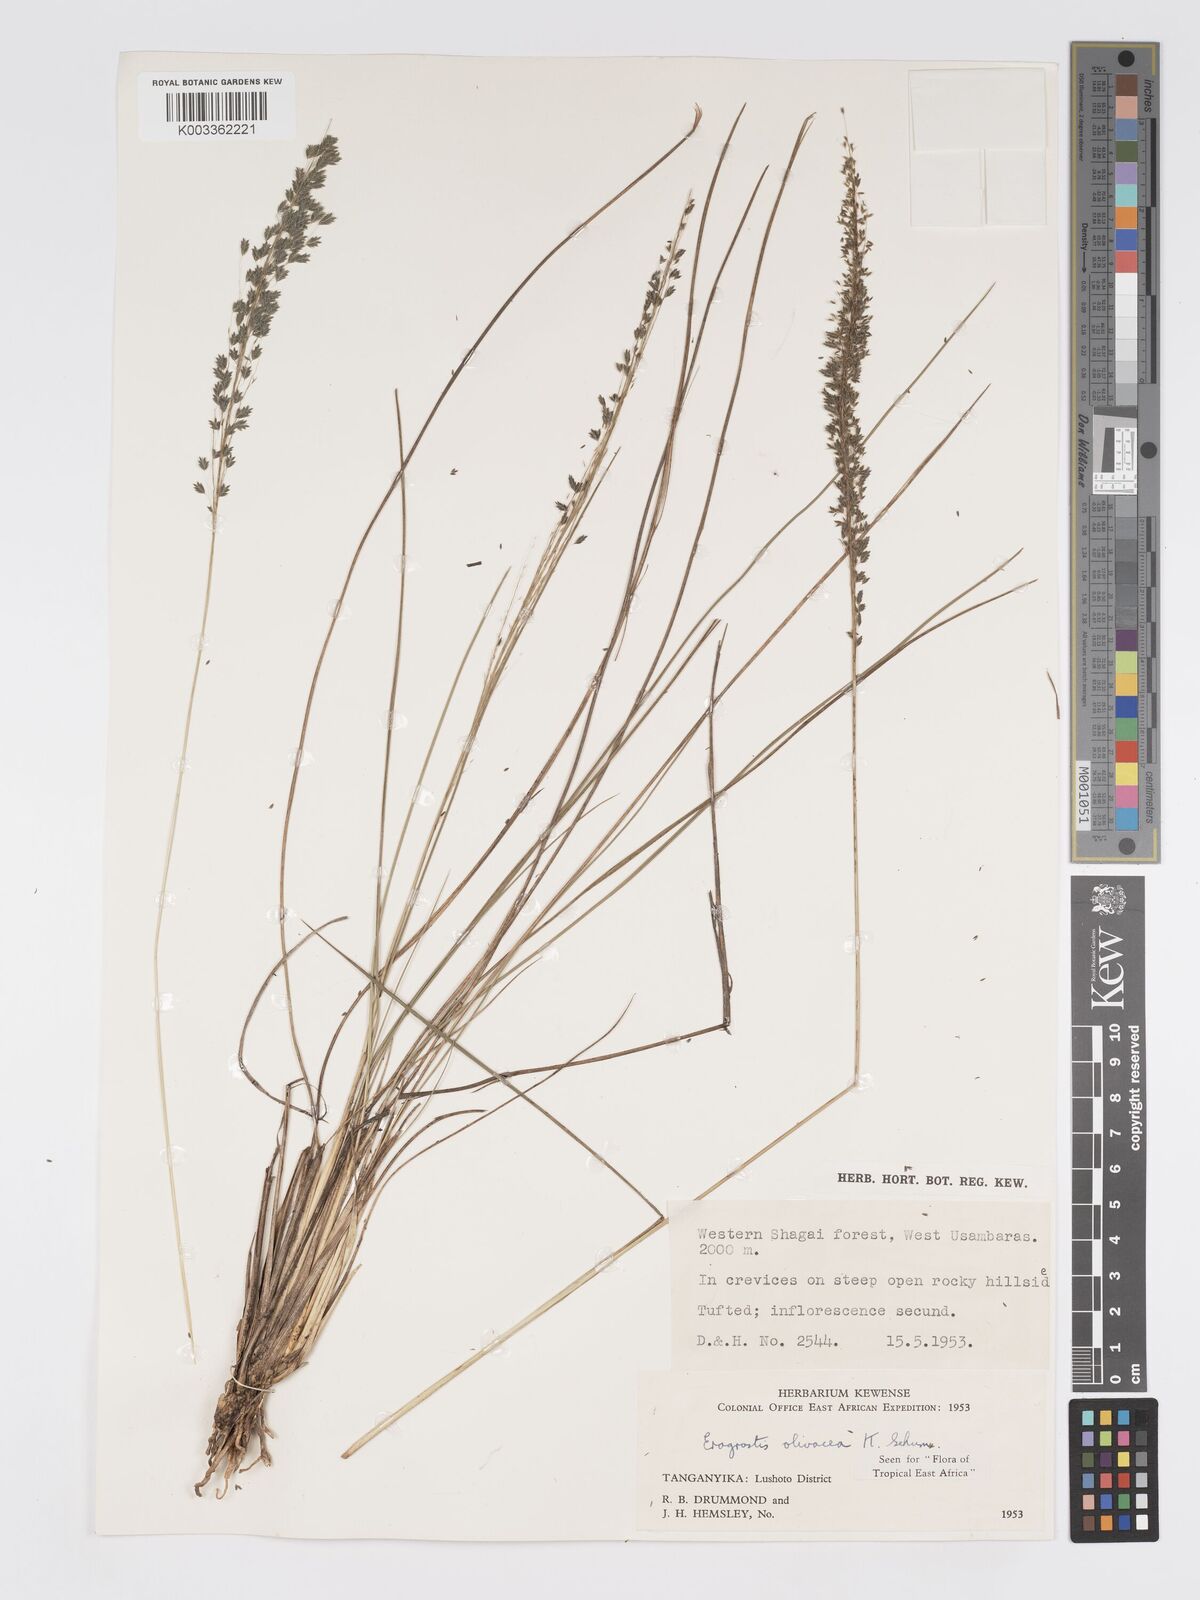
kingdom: Plantae
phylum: Tracheophyta
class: Liliopsida
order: Poales
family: Poaceae
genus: Eragrostis
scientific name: Eragrostis olivacea
